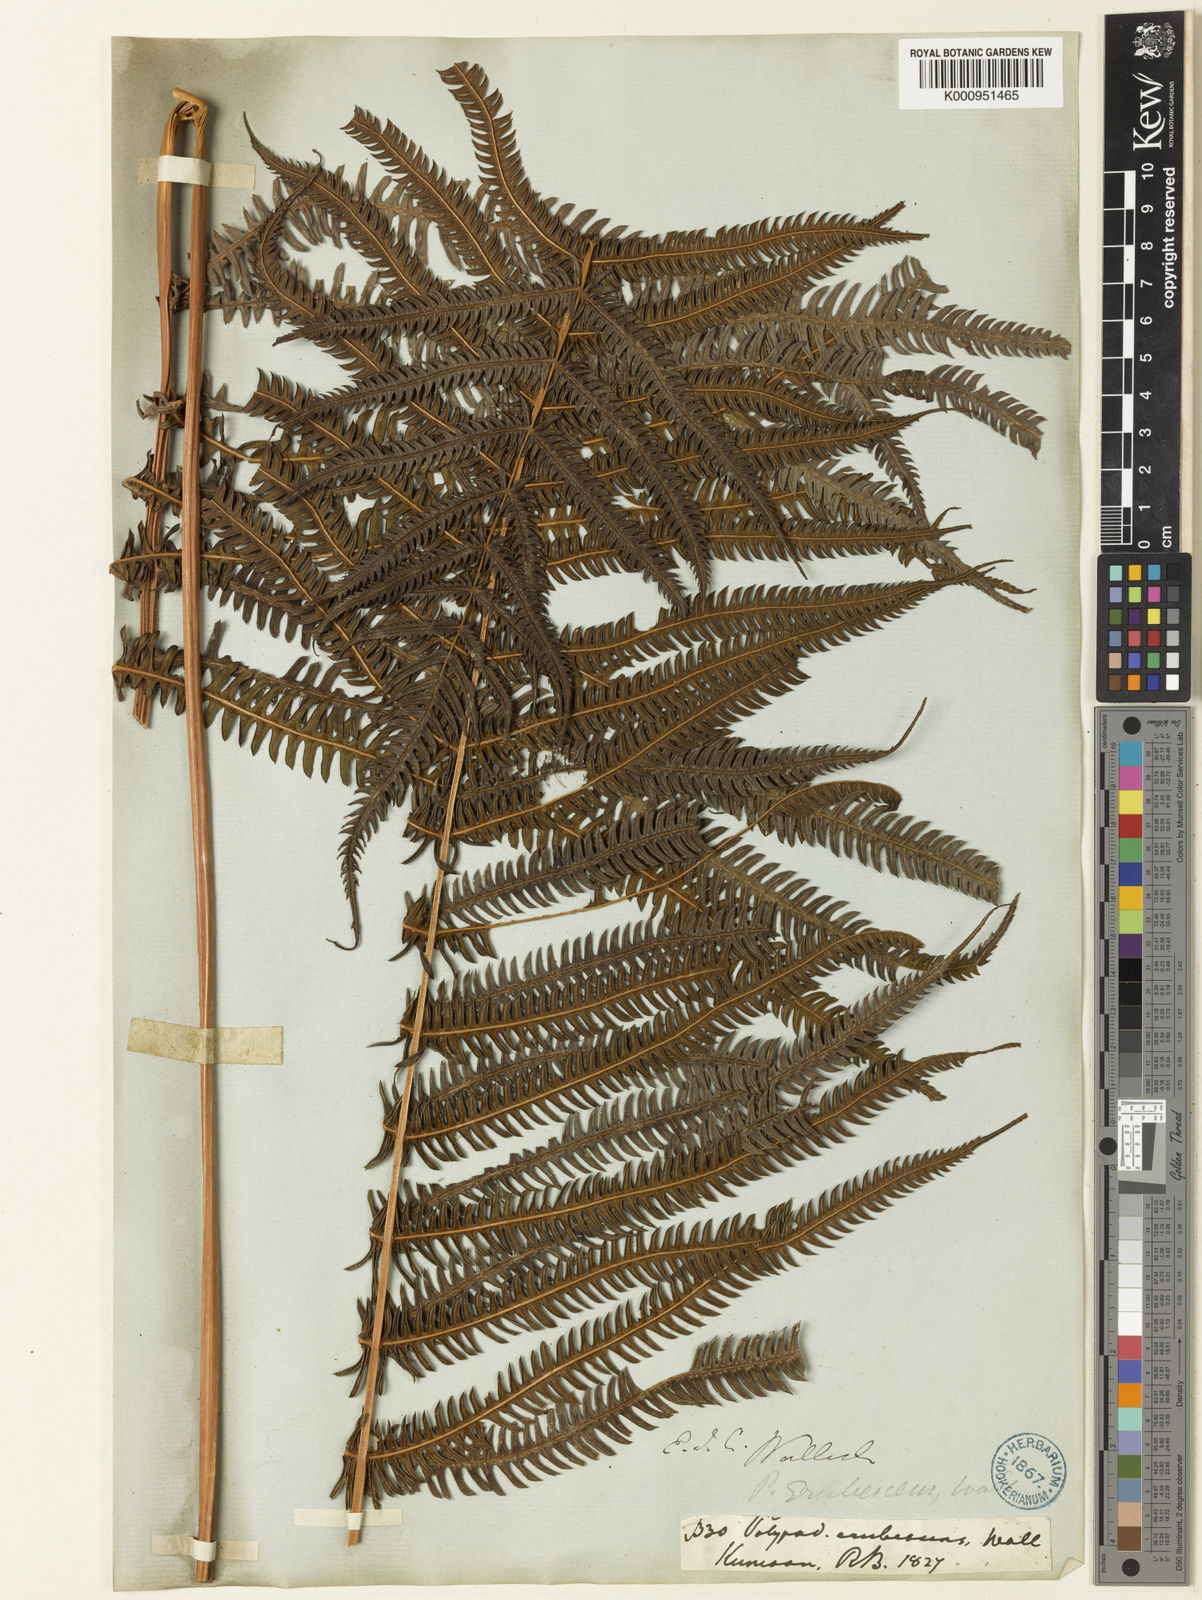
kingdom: Plantae
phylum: Tracheophyta
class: Polypodiopsida
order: Polypodiales
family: Thelypteridaceae
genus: Glaphyropteridopsis
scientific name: Glaphyropteridopsis erubescens
